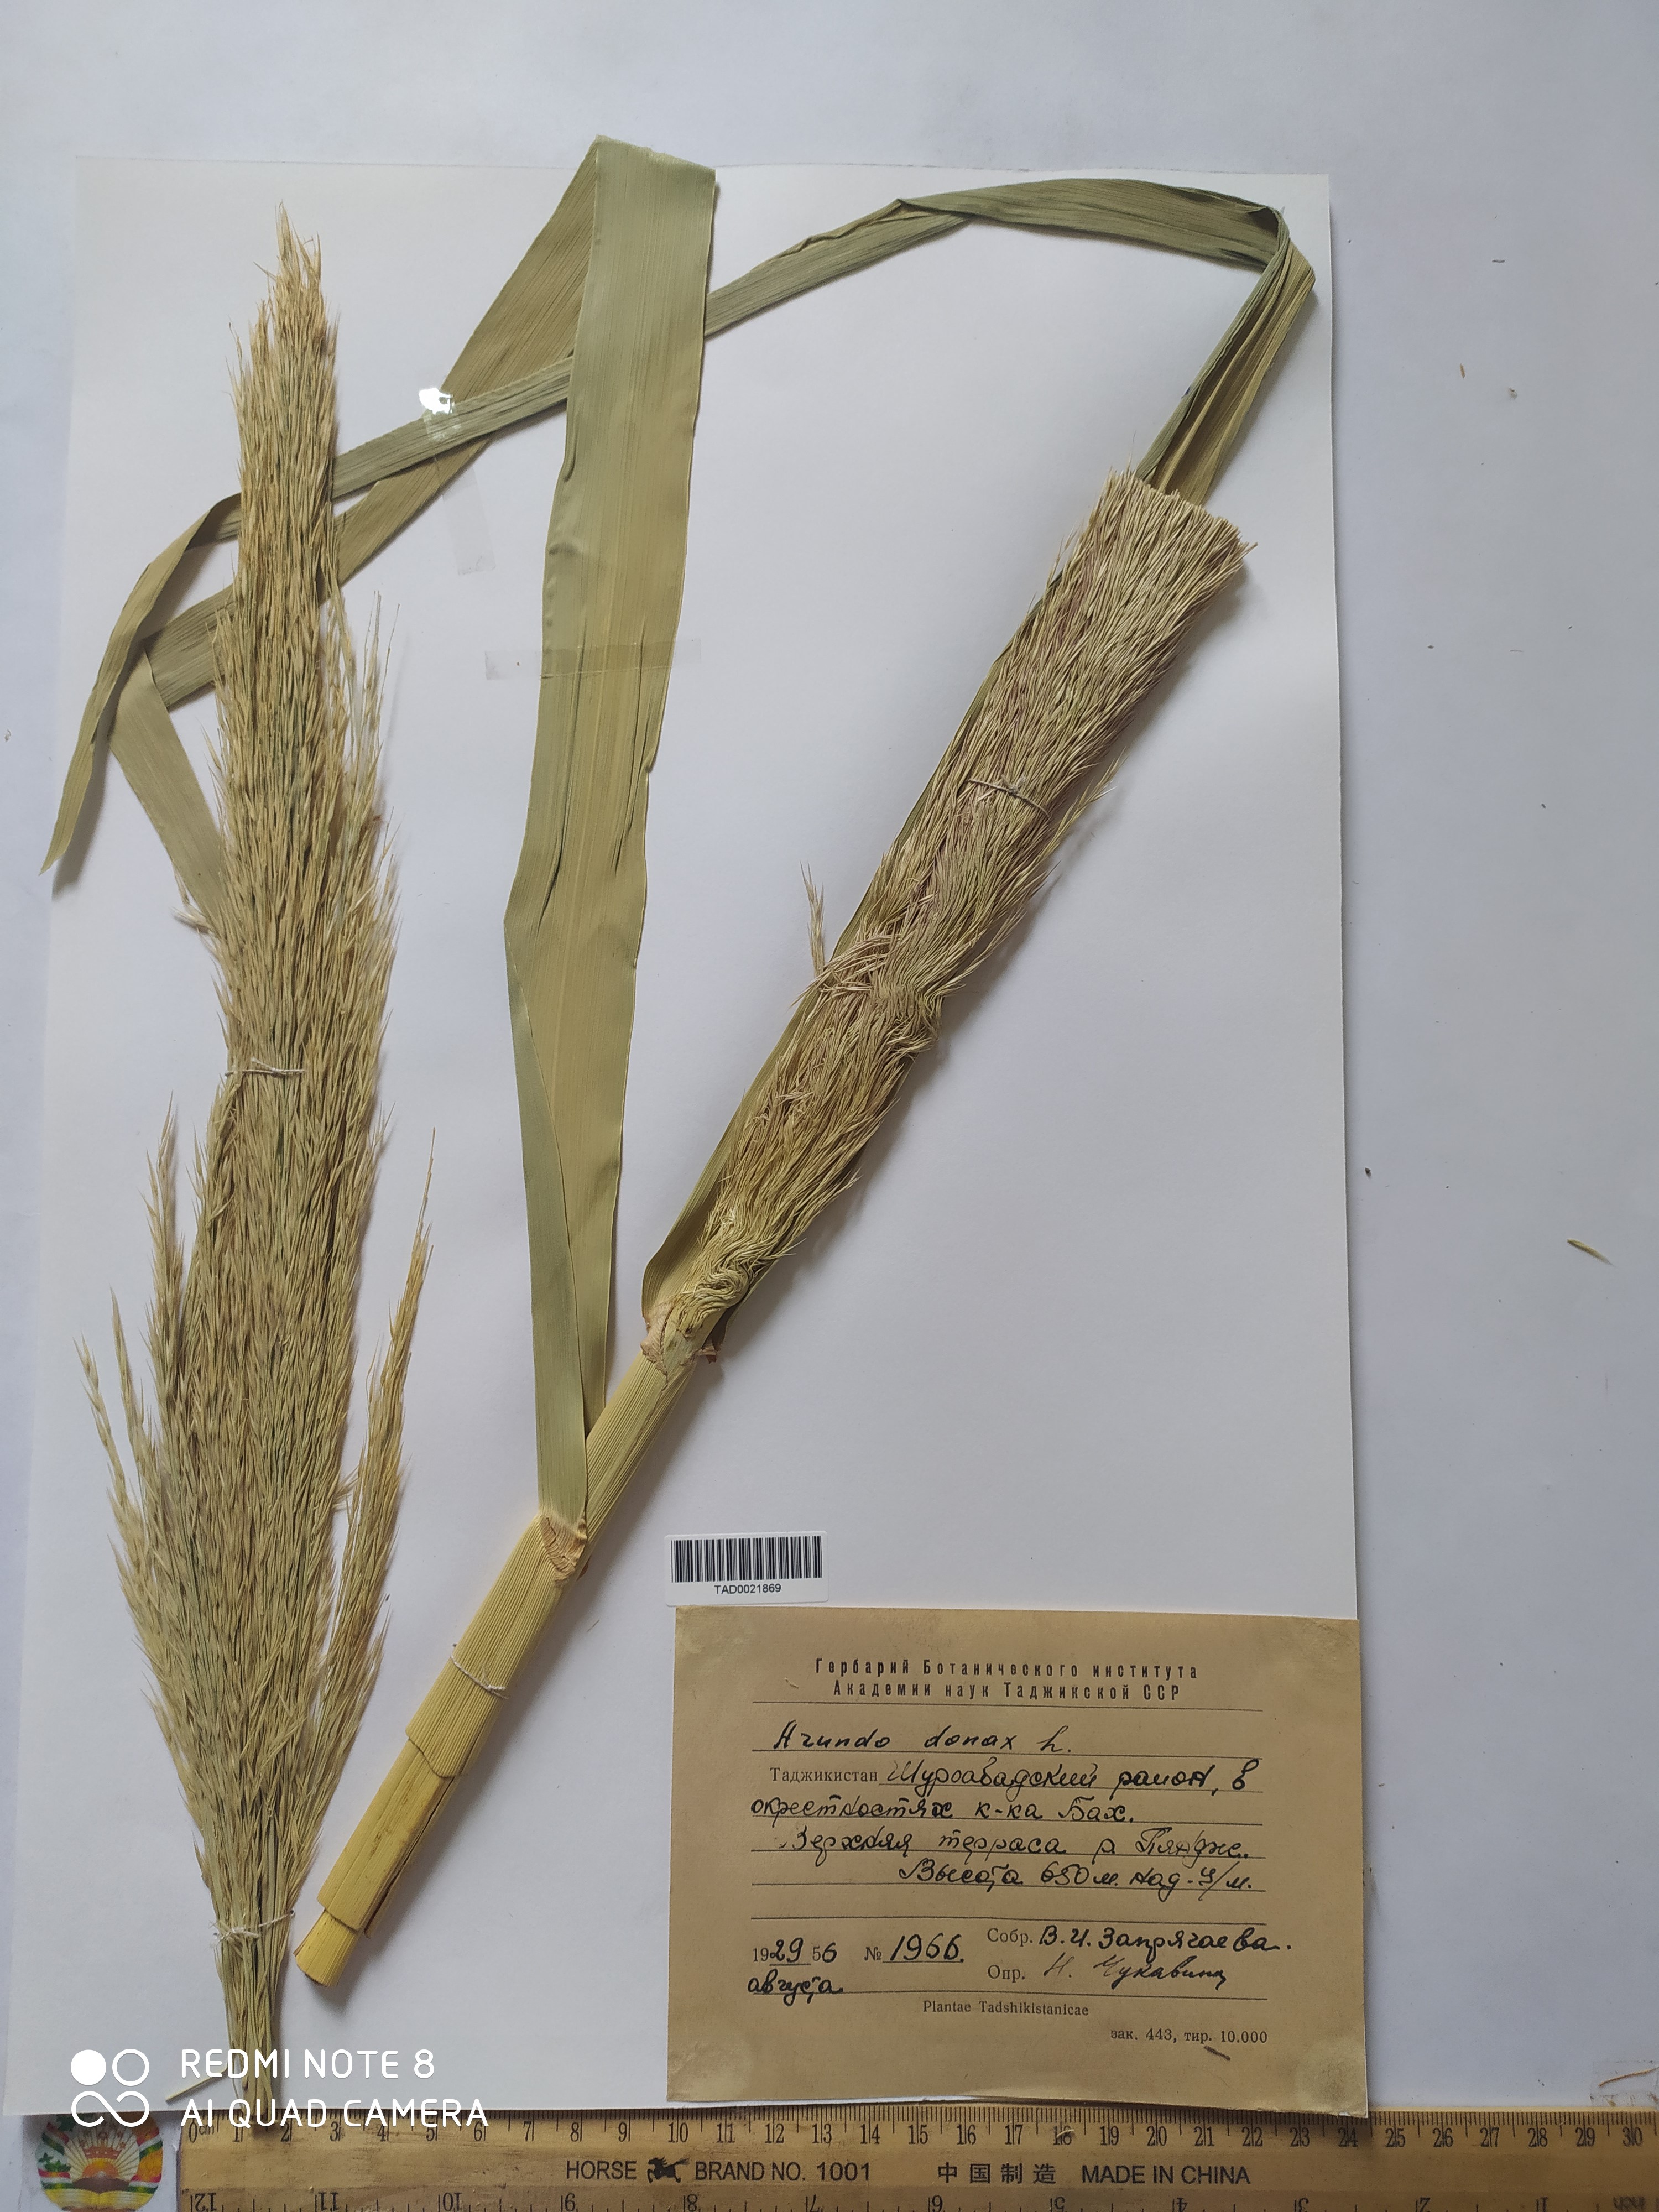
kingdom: Plantae
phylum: Tracheophyta
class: Liliopsida
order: Poales
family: Poaceae
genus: Arundo
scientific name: Arundo donax
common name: Giant reed
